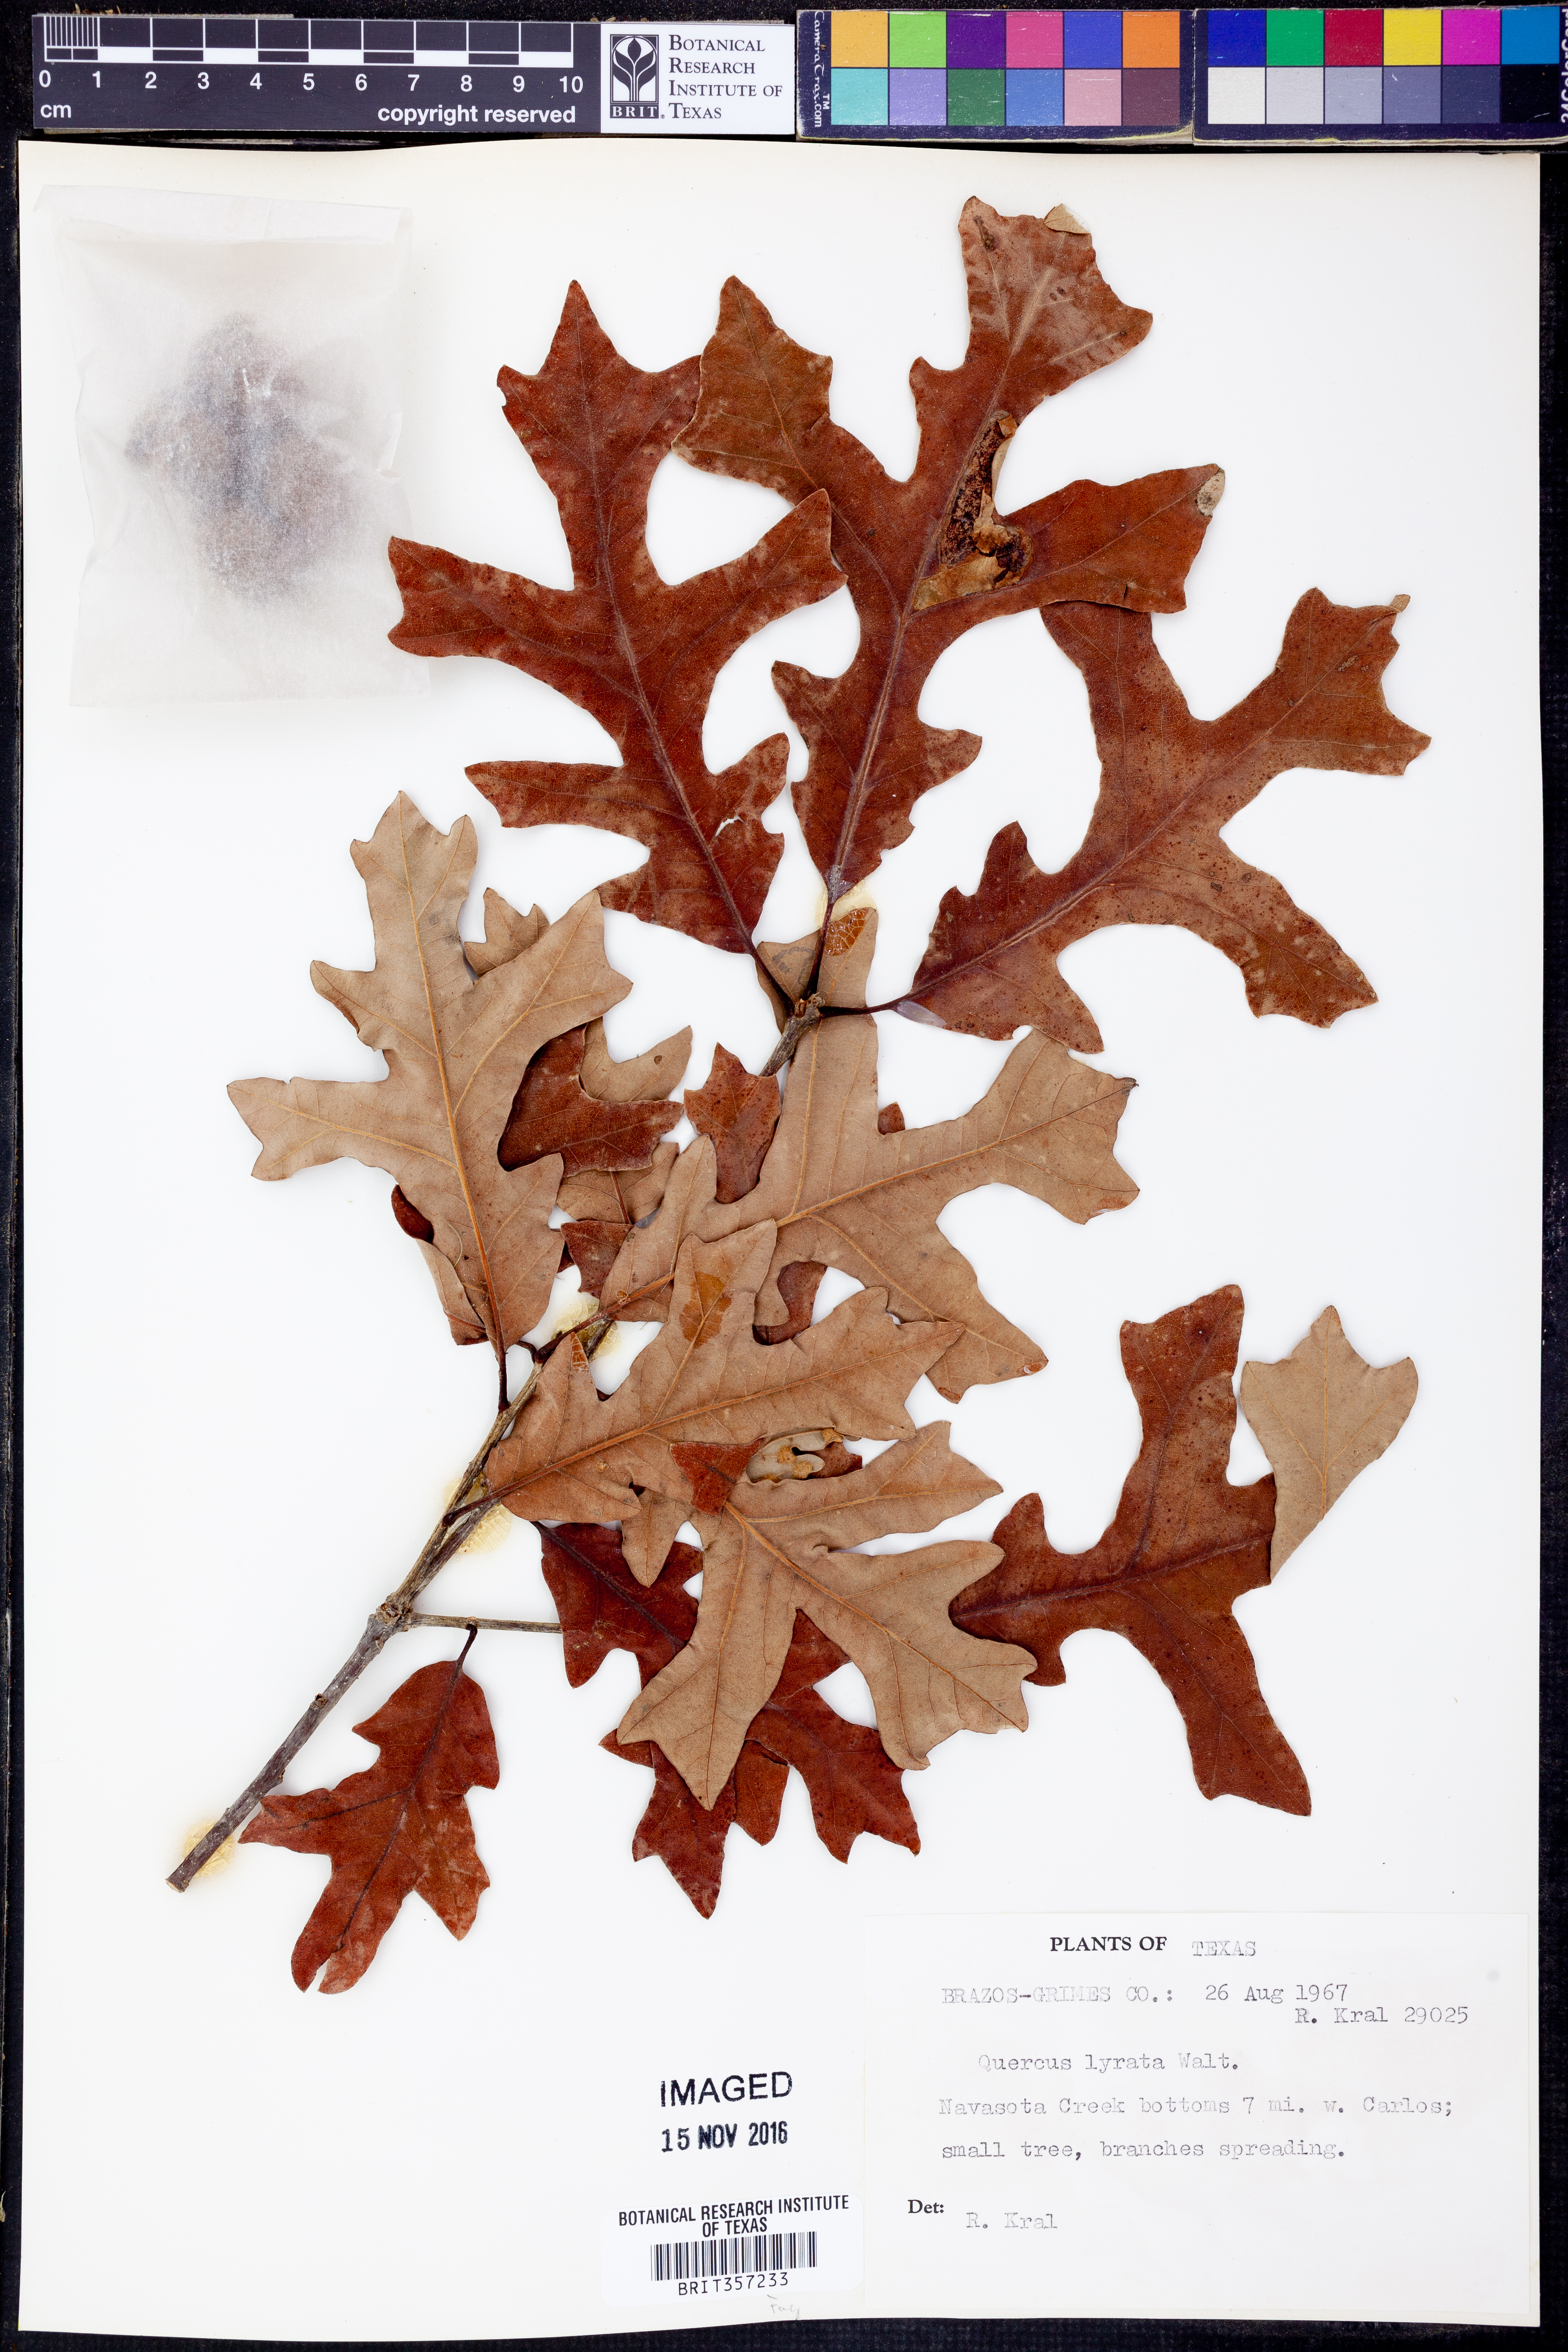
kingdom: Plantae
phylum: Tracheophyta
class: Magnoliopsida
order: Fagales
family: Fagaceae
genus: Quercus
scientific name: Quercus lyrata
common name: Overcup oak
